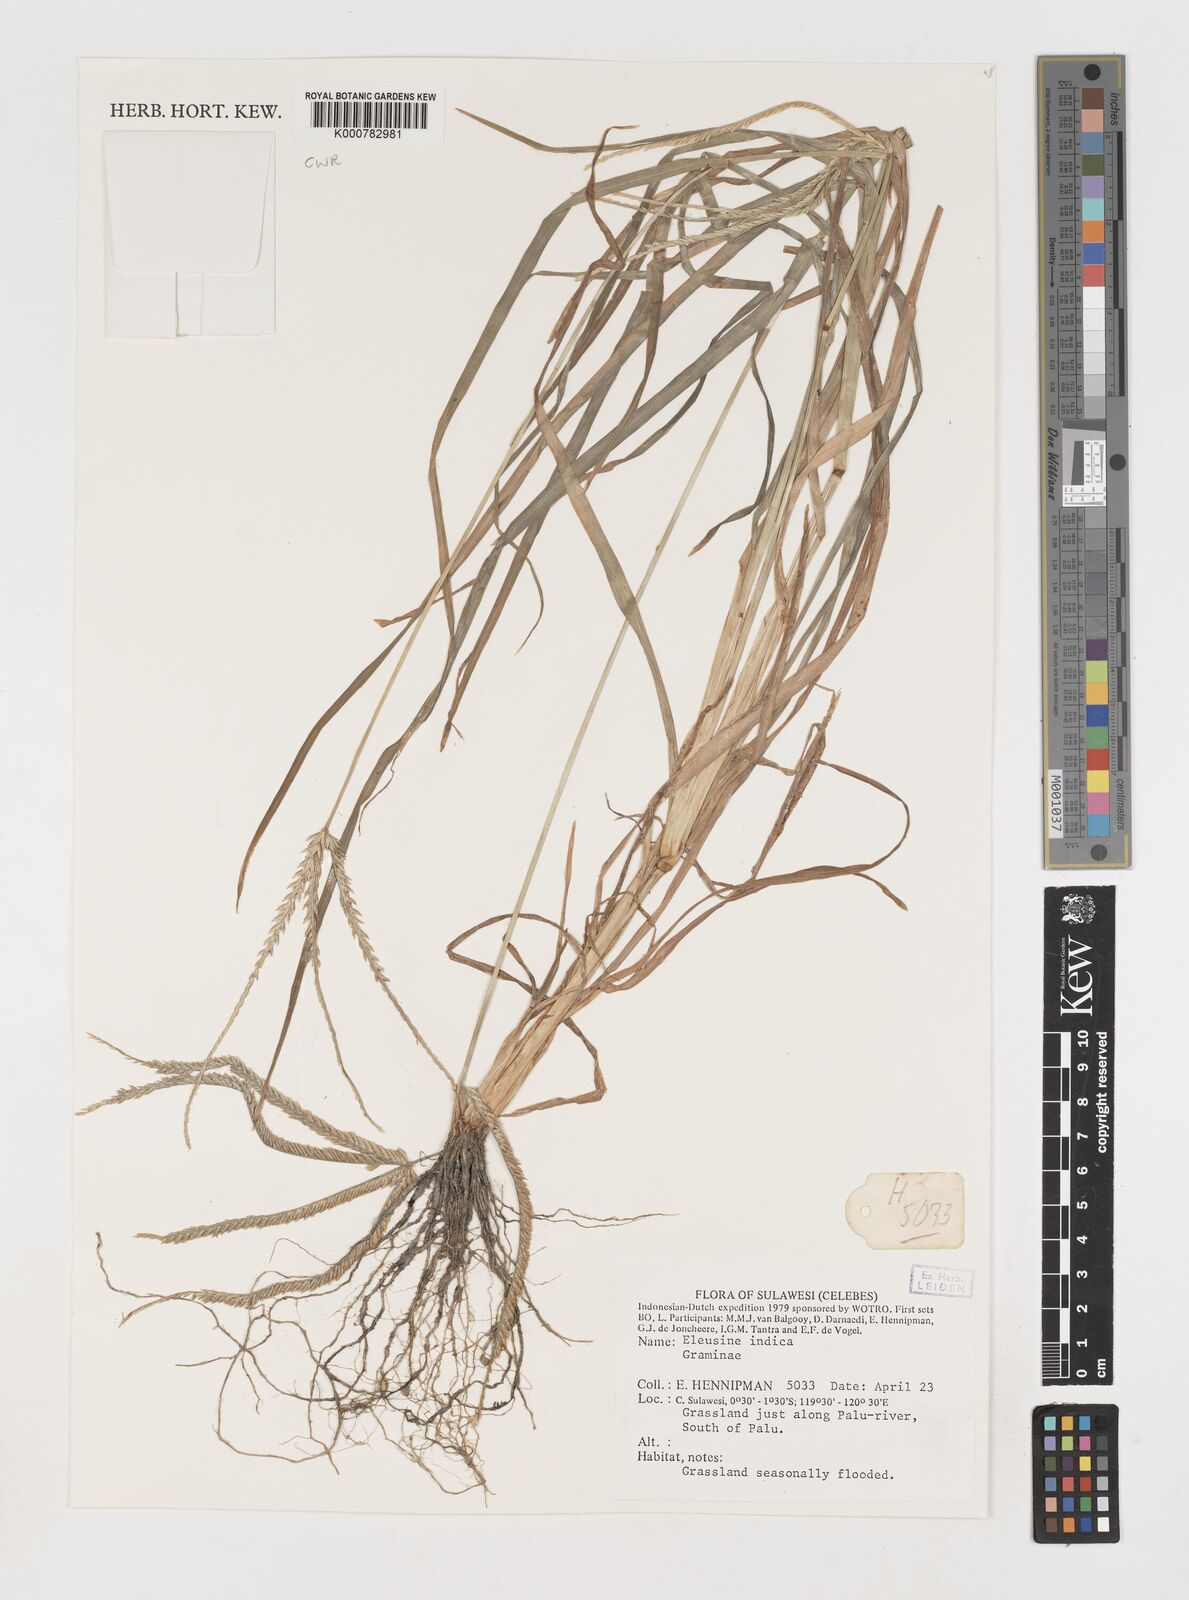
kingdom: Plantae
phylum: Tracheophyta
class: Liliopsida
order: Poales
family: Poaceae
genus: Eleusine
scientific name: Eleusine indica
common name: Yard-grass
